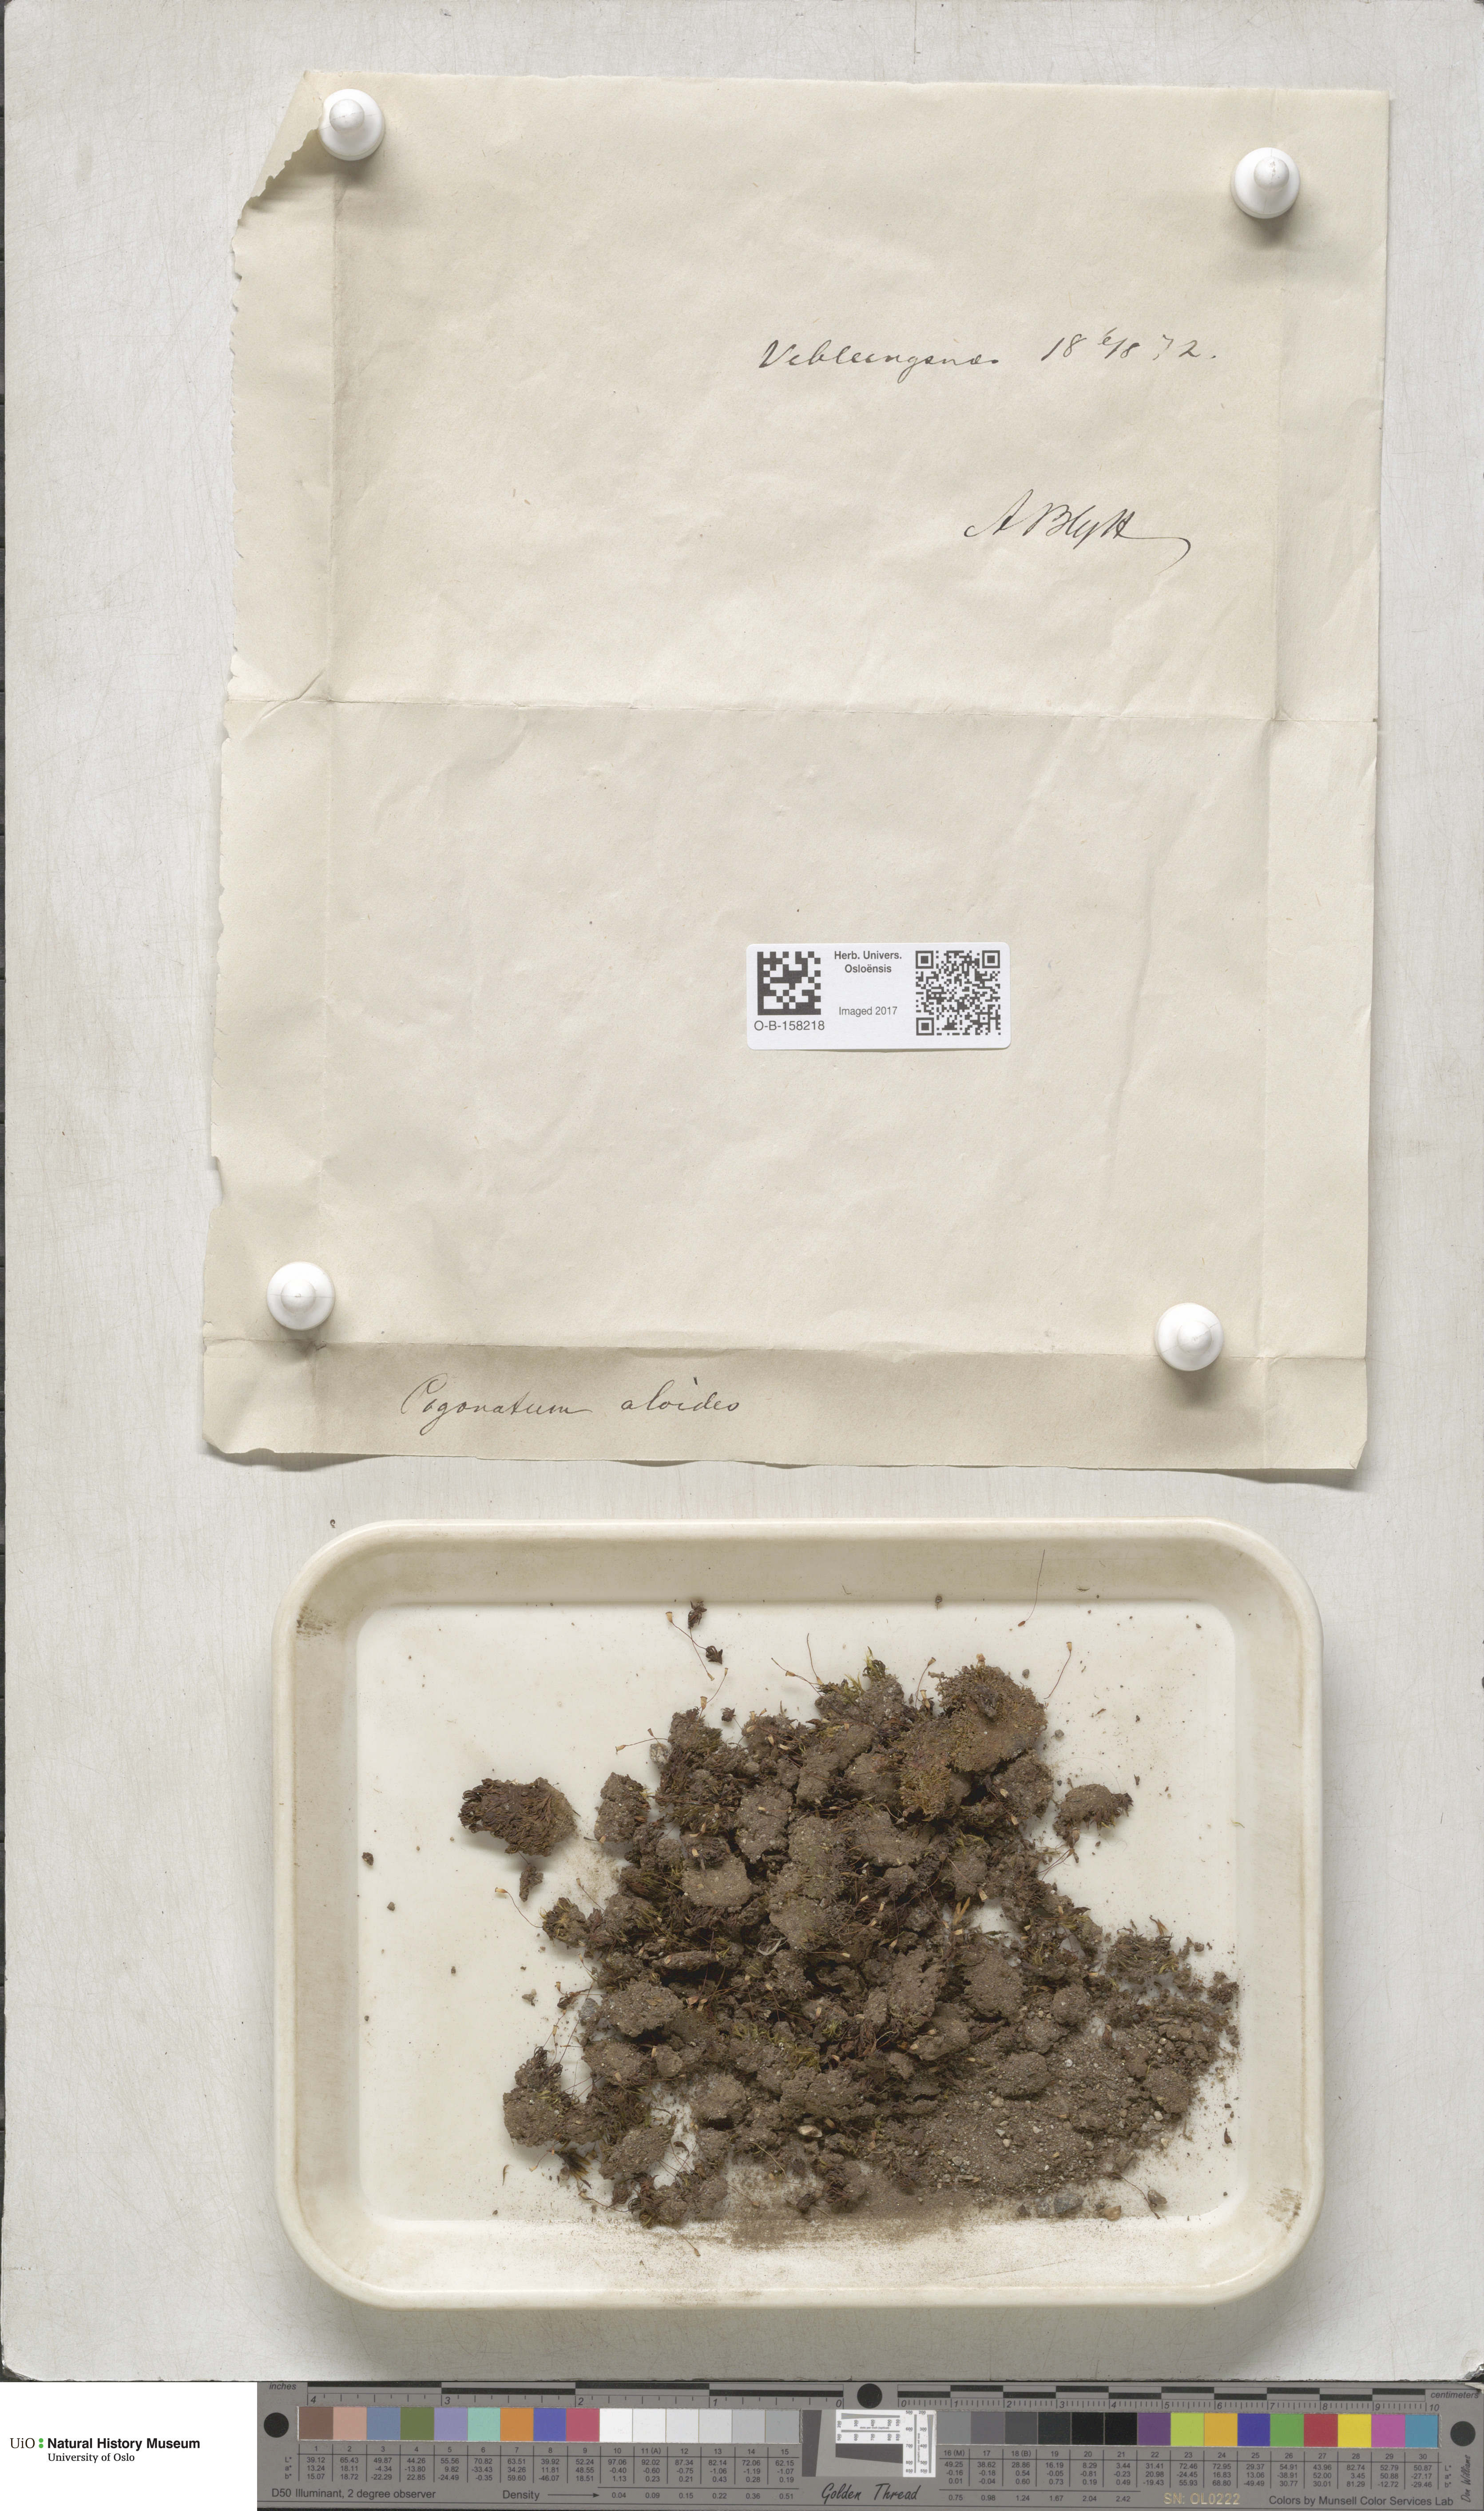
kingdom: Plantae
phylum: Bryophyta
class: Polytrichopsida
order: Polytrichales
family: Polytrichaceae
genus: Pogonatum
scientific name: Pogonatum aloides
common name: Aloe haircap
